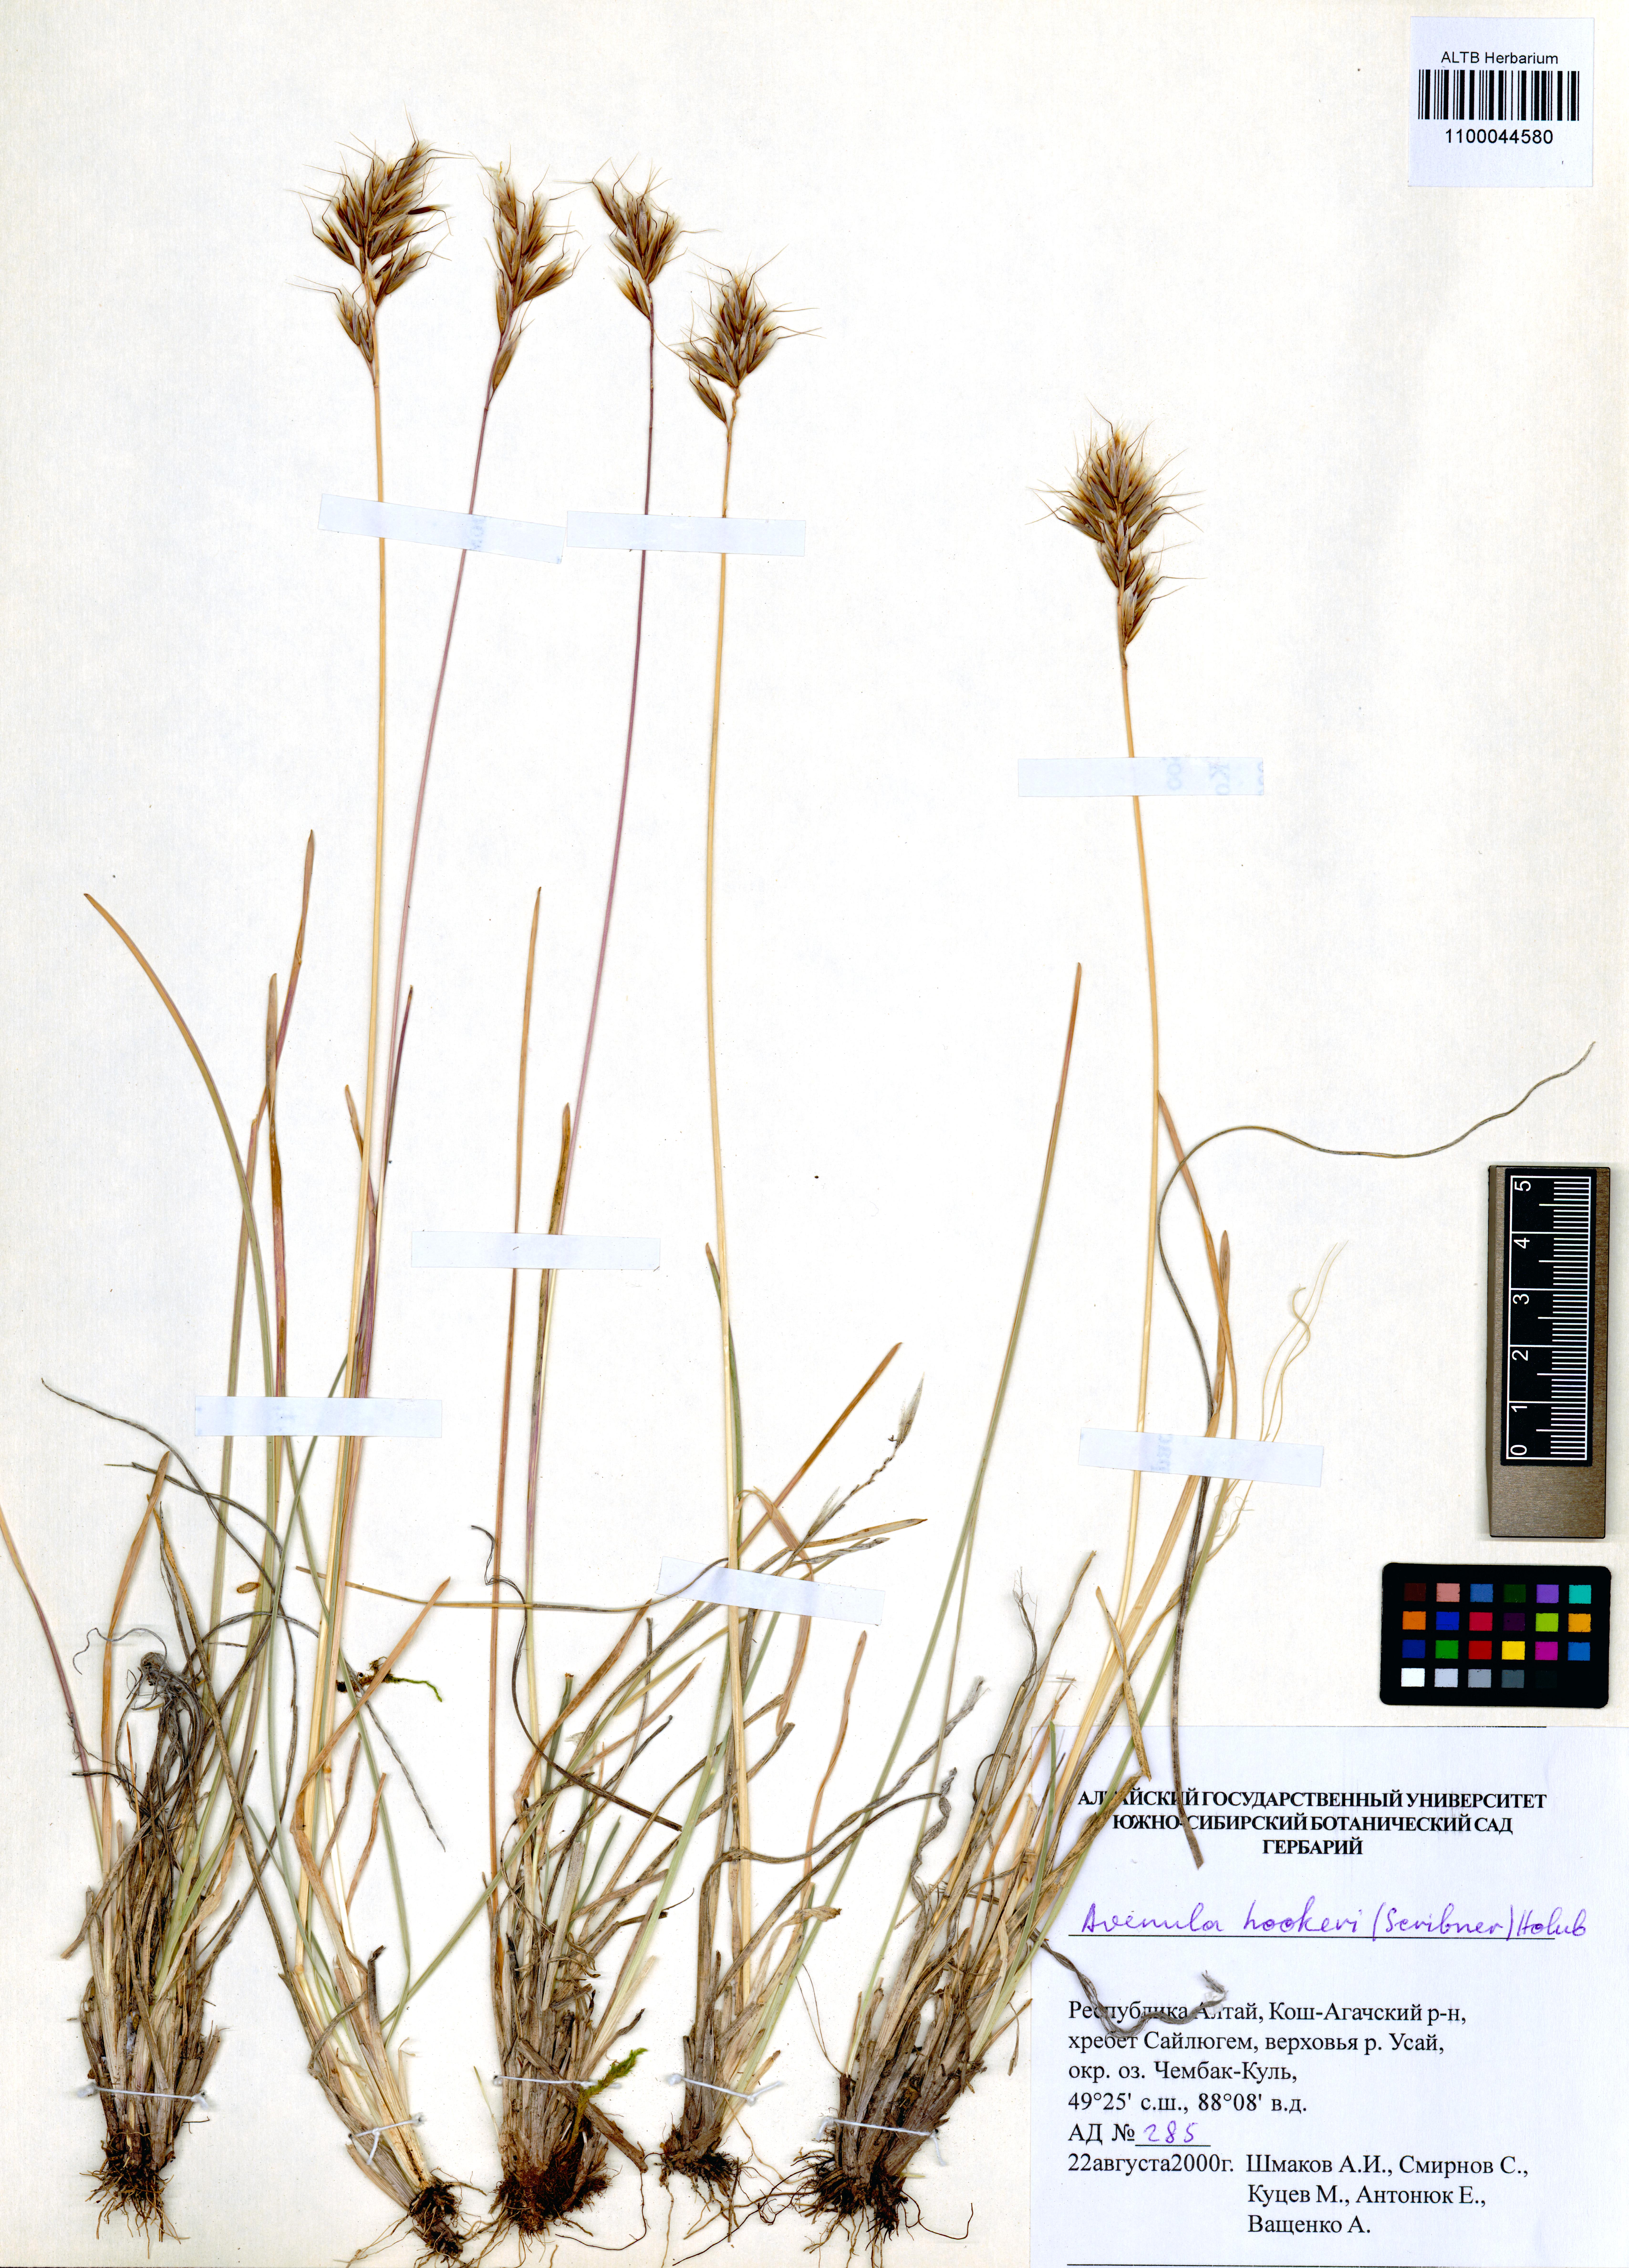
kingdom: Plantae
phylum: Tracheophyta
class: Liliopsida
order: Poales
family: Poaceae
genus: Helictochloa
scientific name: Helictochloa hookeri
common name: Hooker's alpine oatgrass
